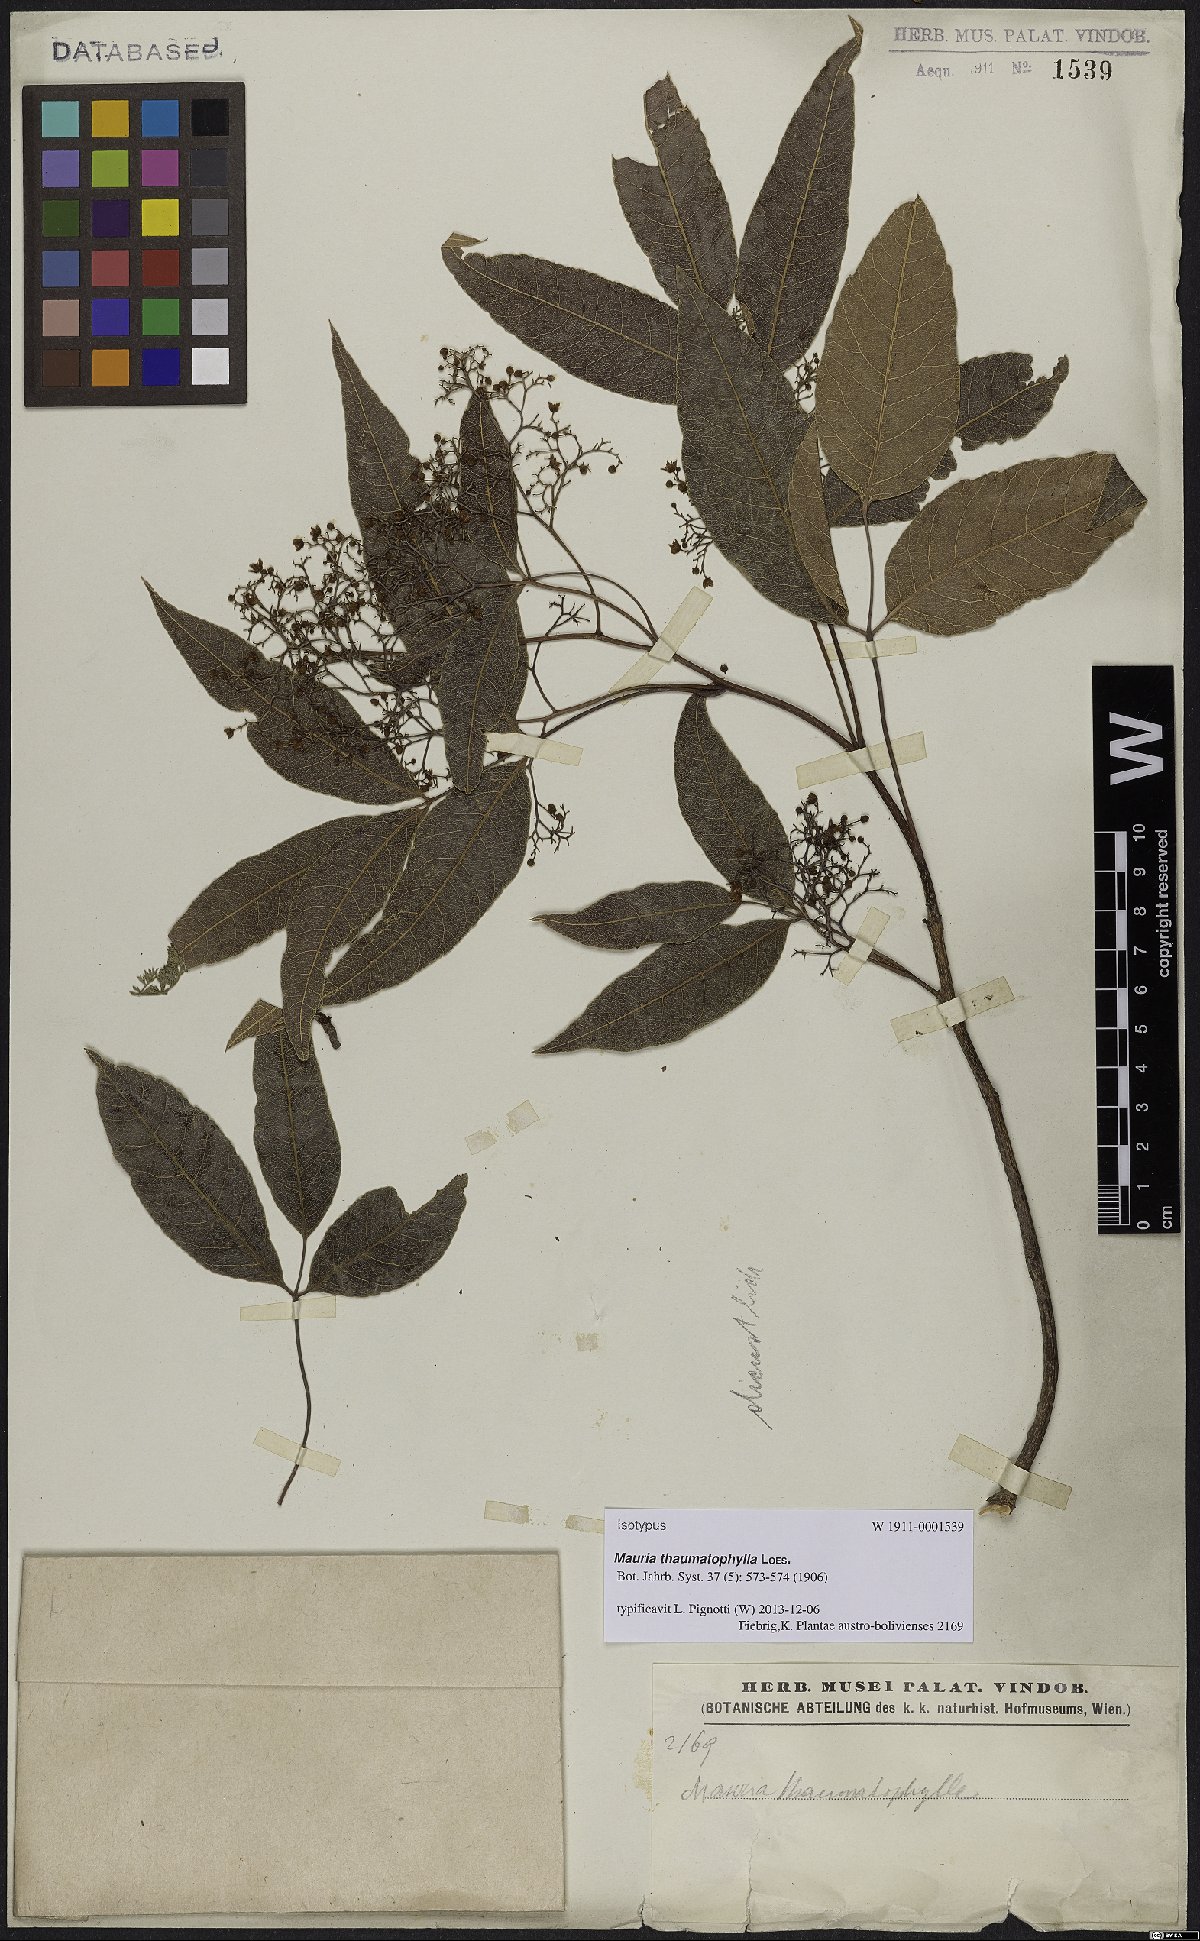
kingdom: Plantae
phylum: Tracheophyta
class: Magnoliopsida
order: Sapindales
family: Anacardiaceae
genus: Mauria
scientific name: Mauria thaumatophylla
